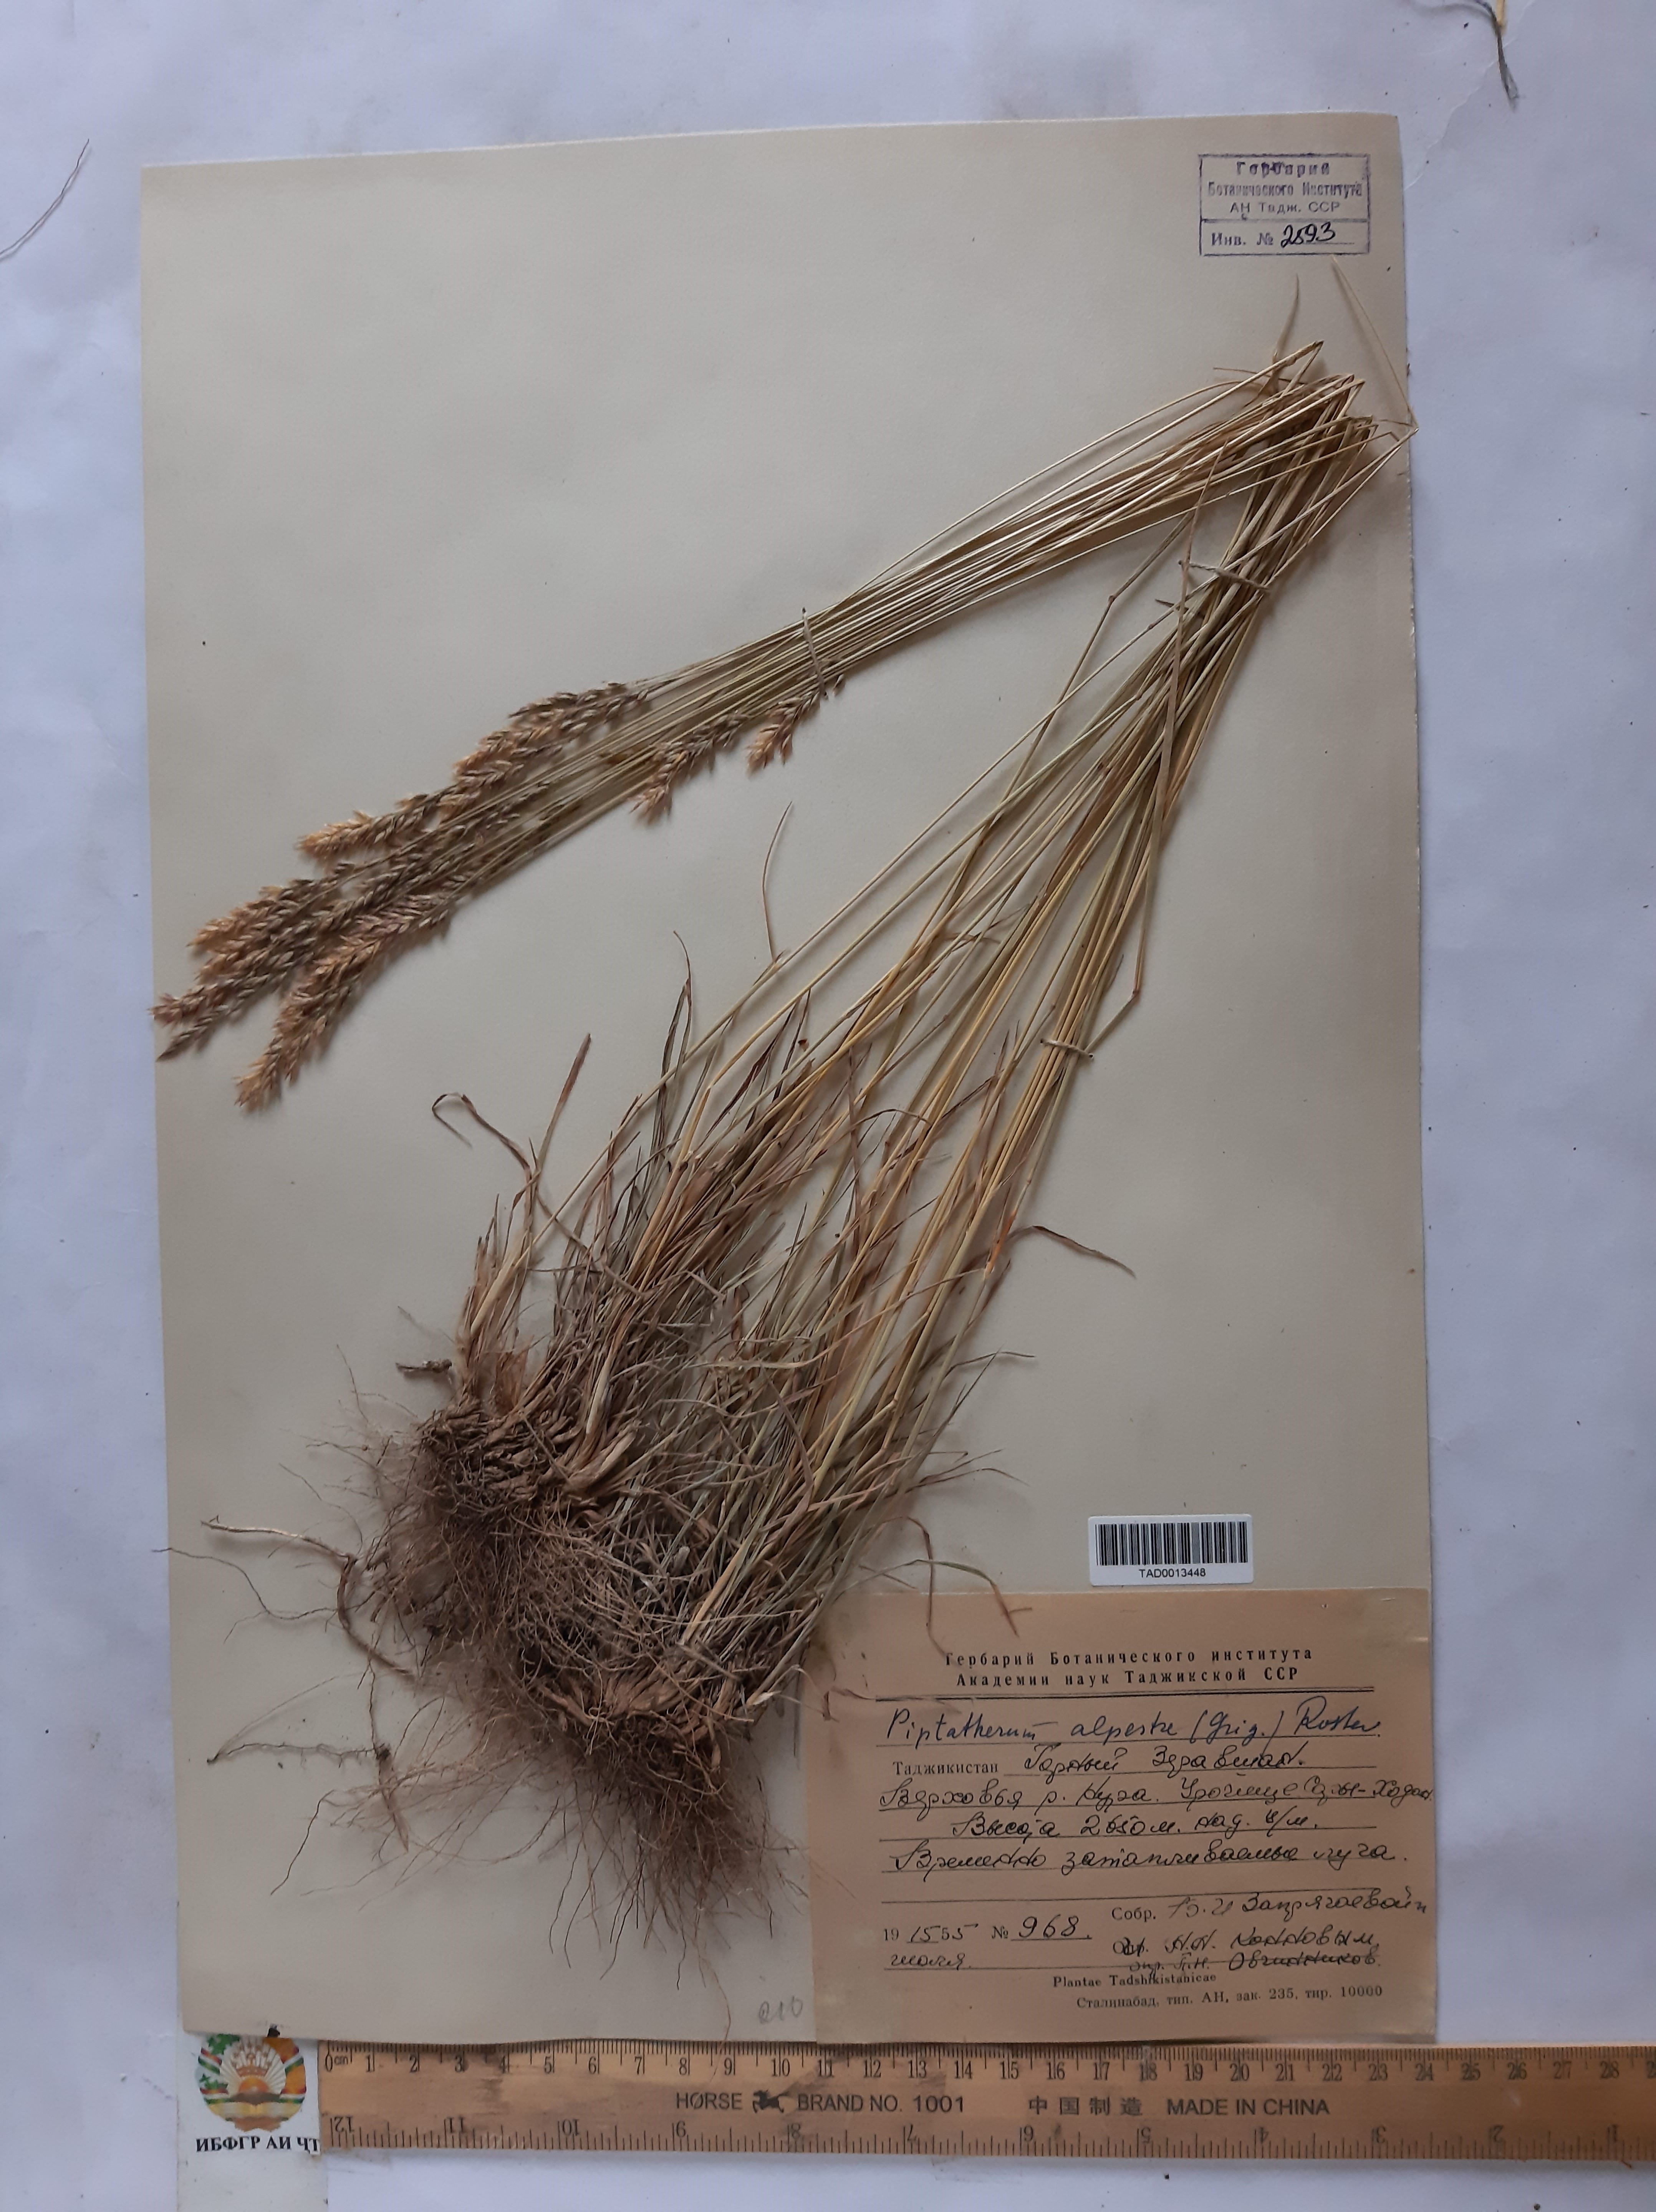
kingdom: Plantae
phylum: Tracheophyta
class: Liliopsida
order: Poales
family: Poaceae
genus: Piptatherum
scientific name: Piptatherum alpestre
